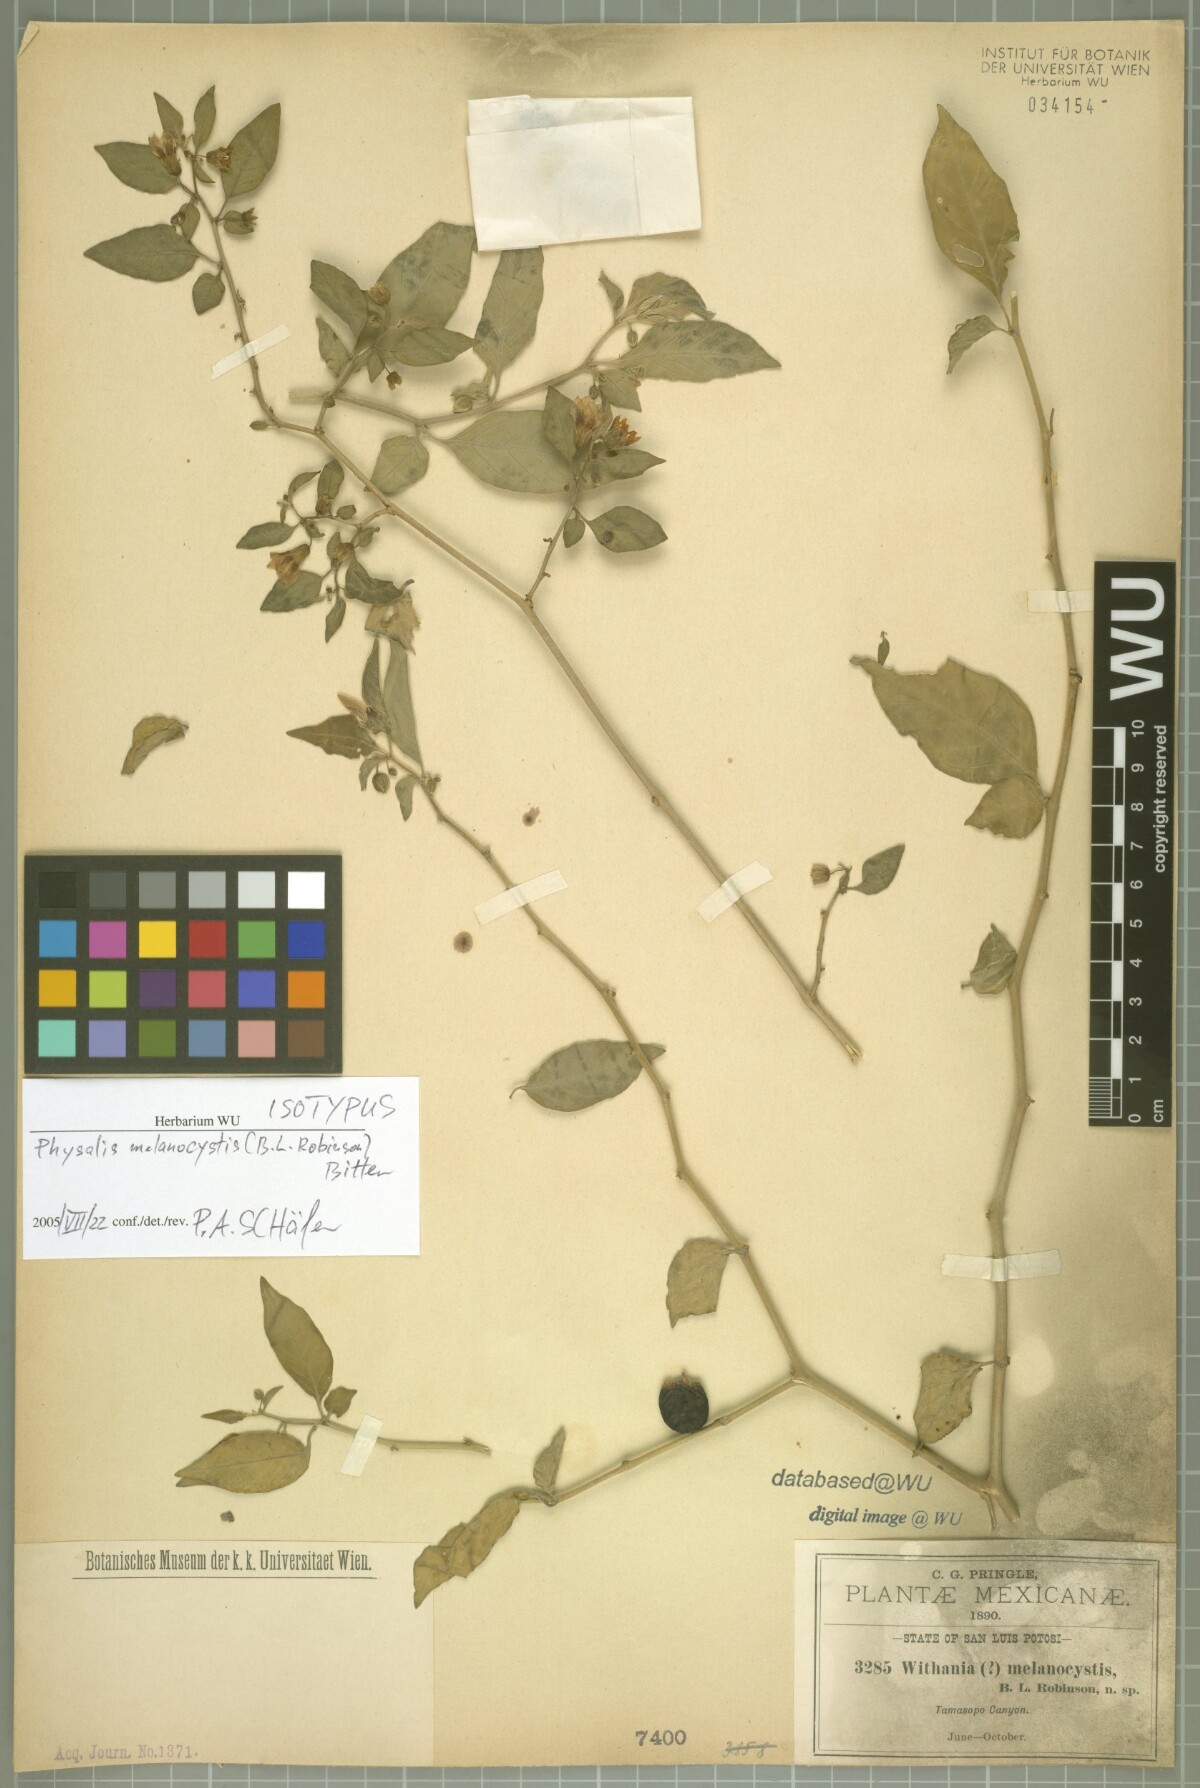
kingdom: Plantae
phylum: Tracheophyta
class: Magnoliopsida
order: Solanales
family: Solanaceae
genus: Physalis
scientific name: Physalis melanocystis
